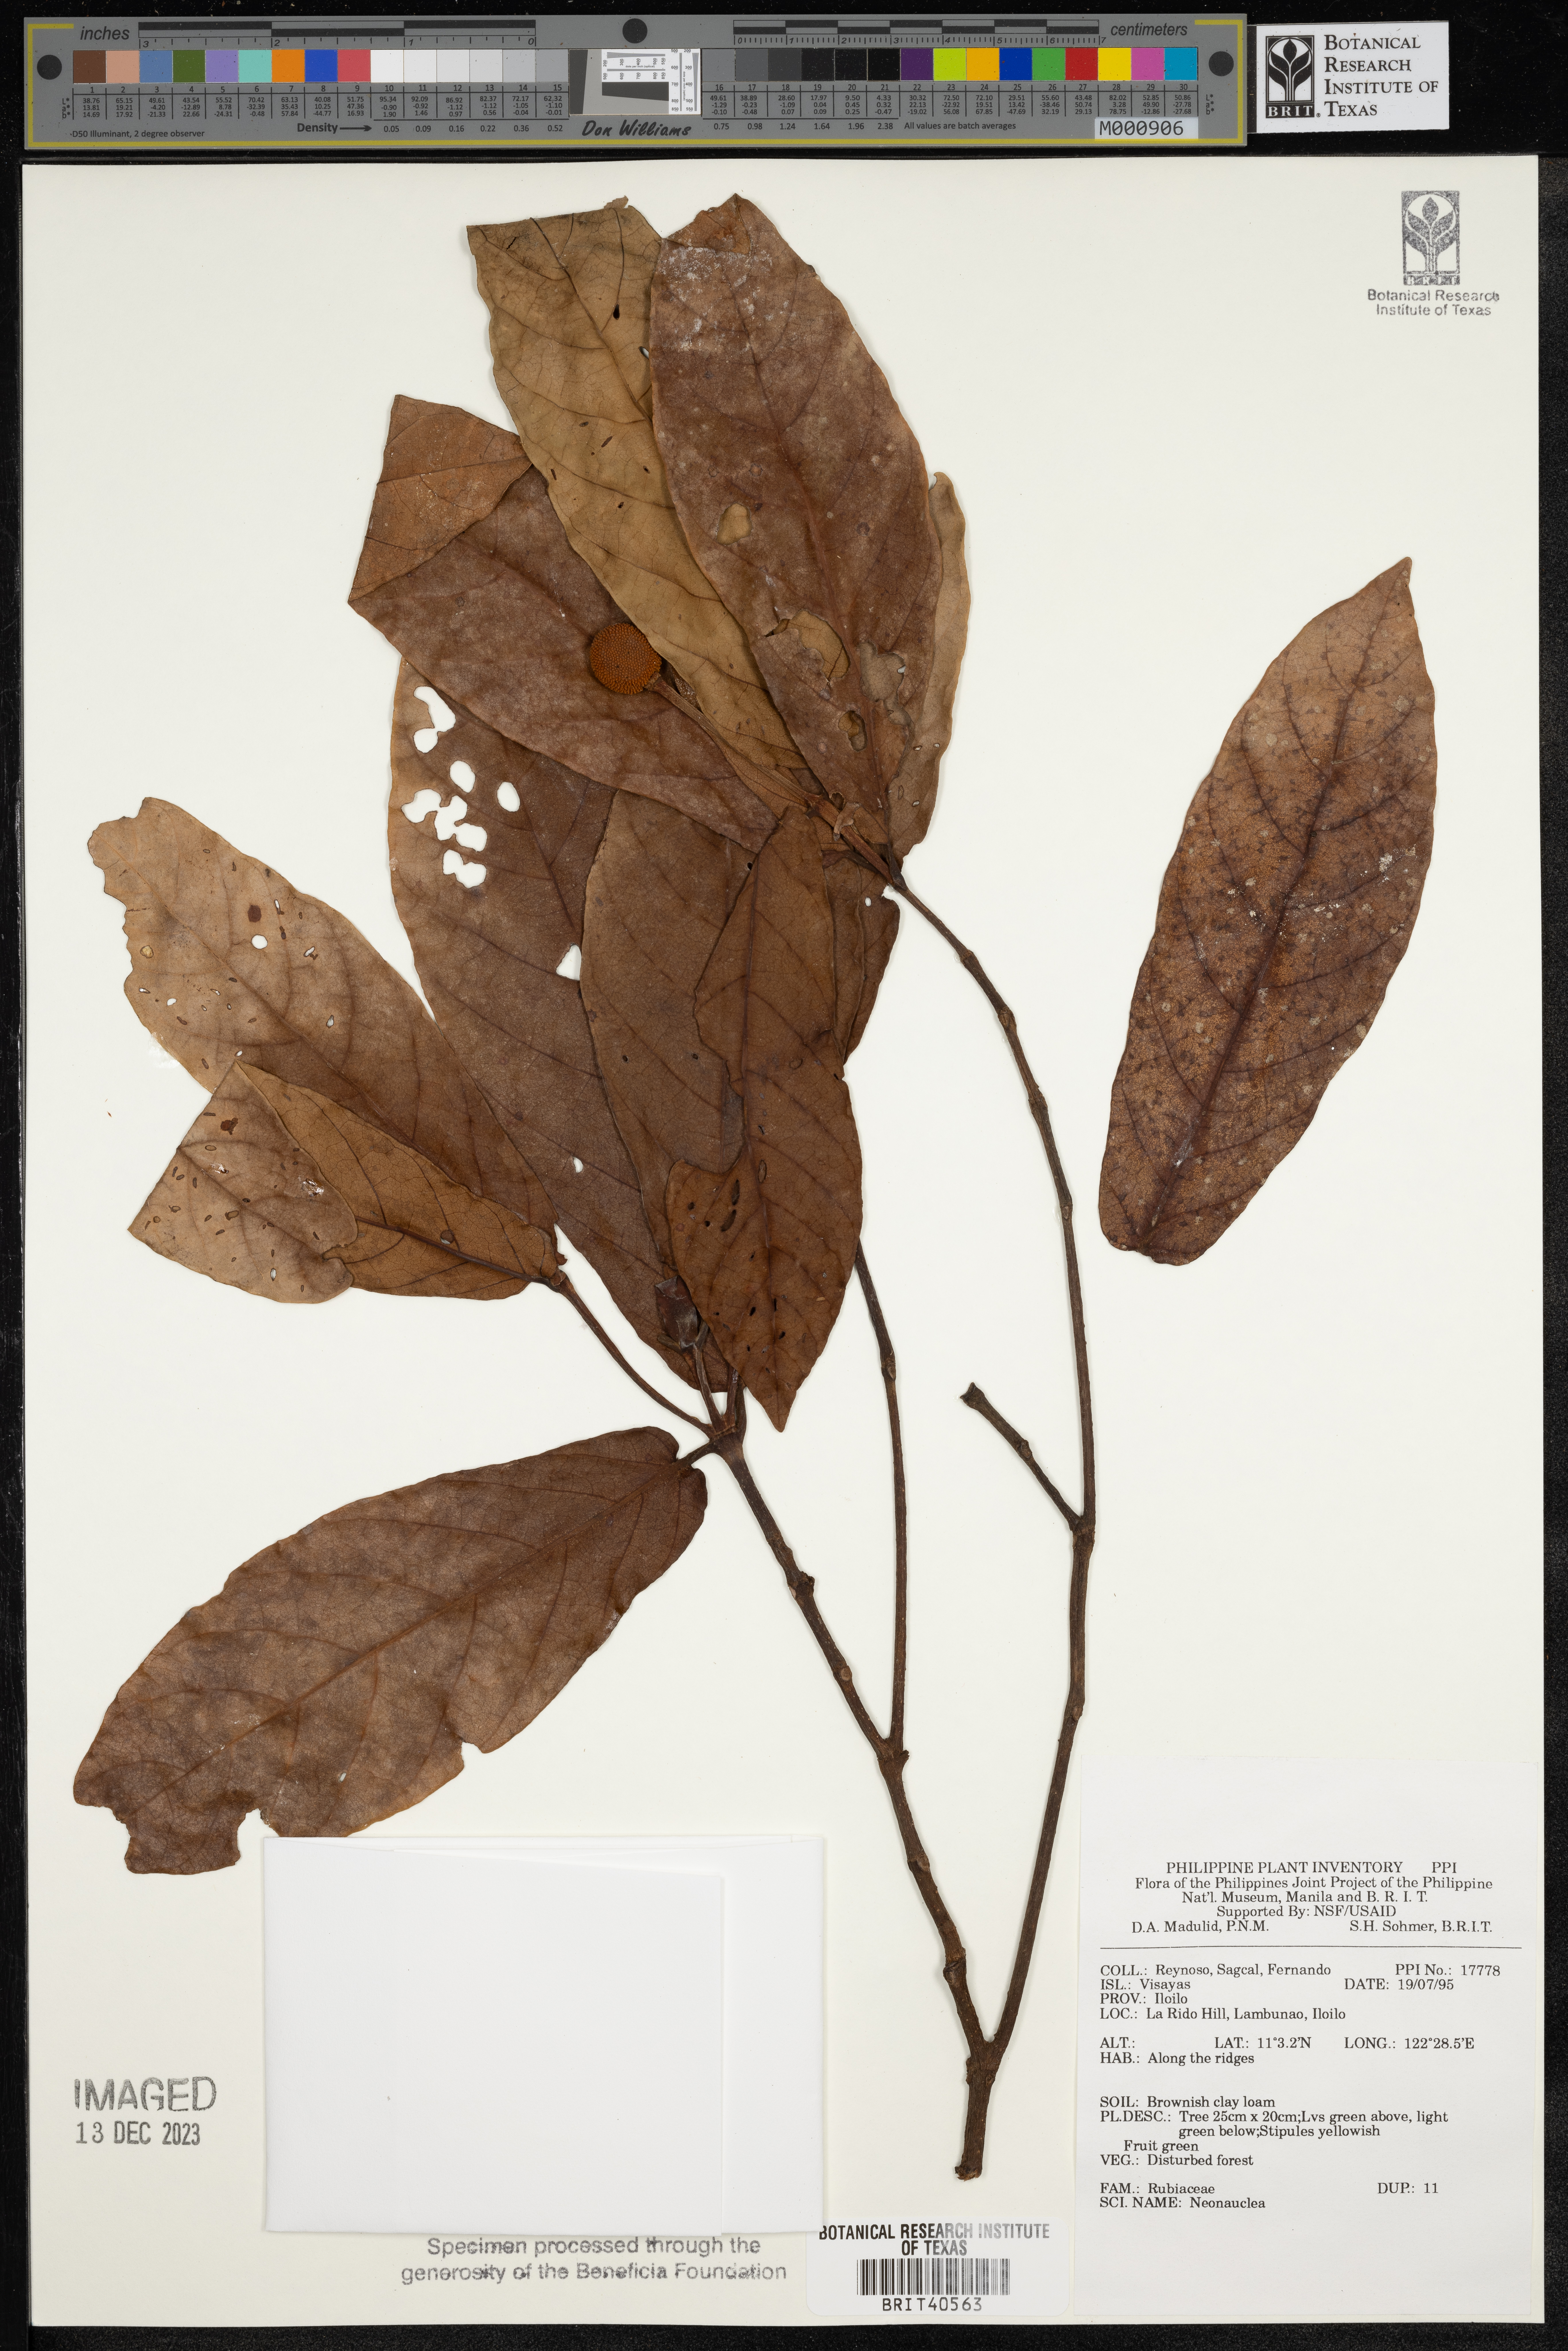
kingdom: Plantae
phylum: Tracheophyta
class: Magnoliopsida
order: Gentianales
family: Rubiaceae
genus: Neonauclea
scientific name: Neonauclea
